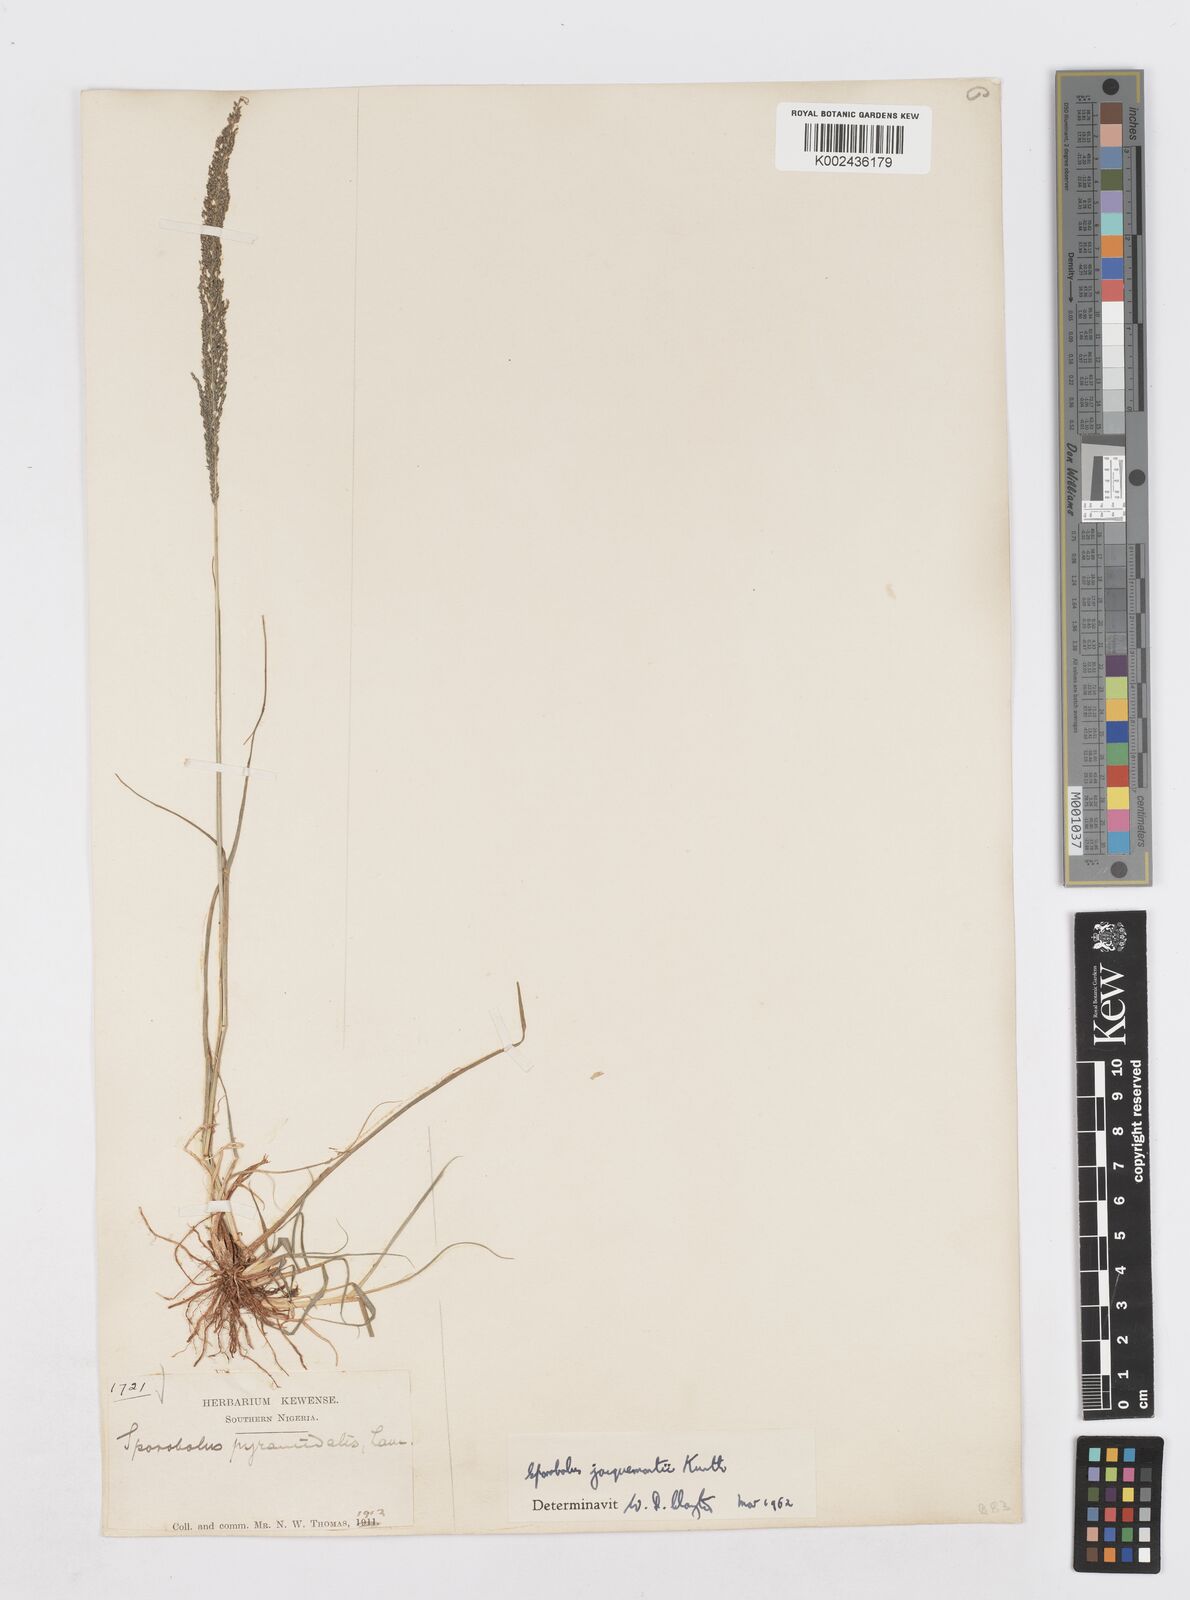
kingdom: Plantae
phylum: Tracheophyta
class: Liliopsida
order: Poales
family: Poaceae
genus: Sporobolus
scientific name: Sporobolus pyramidalis
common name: West indian dropseed
